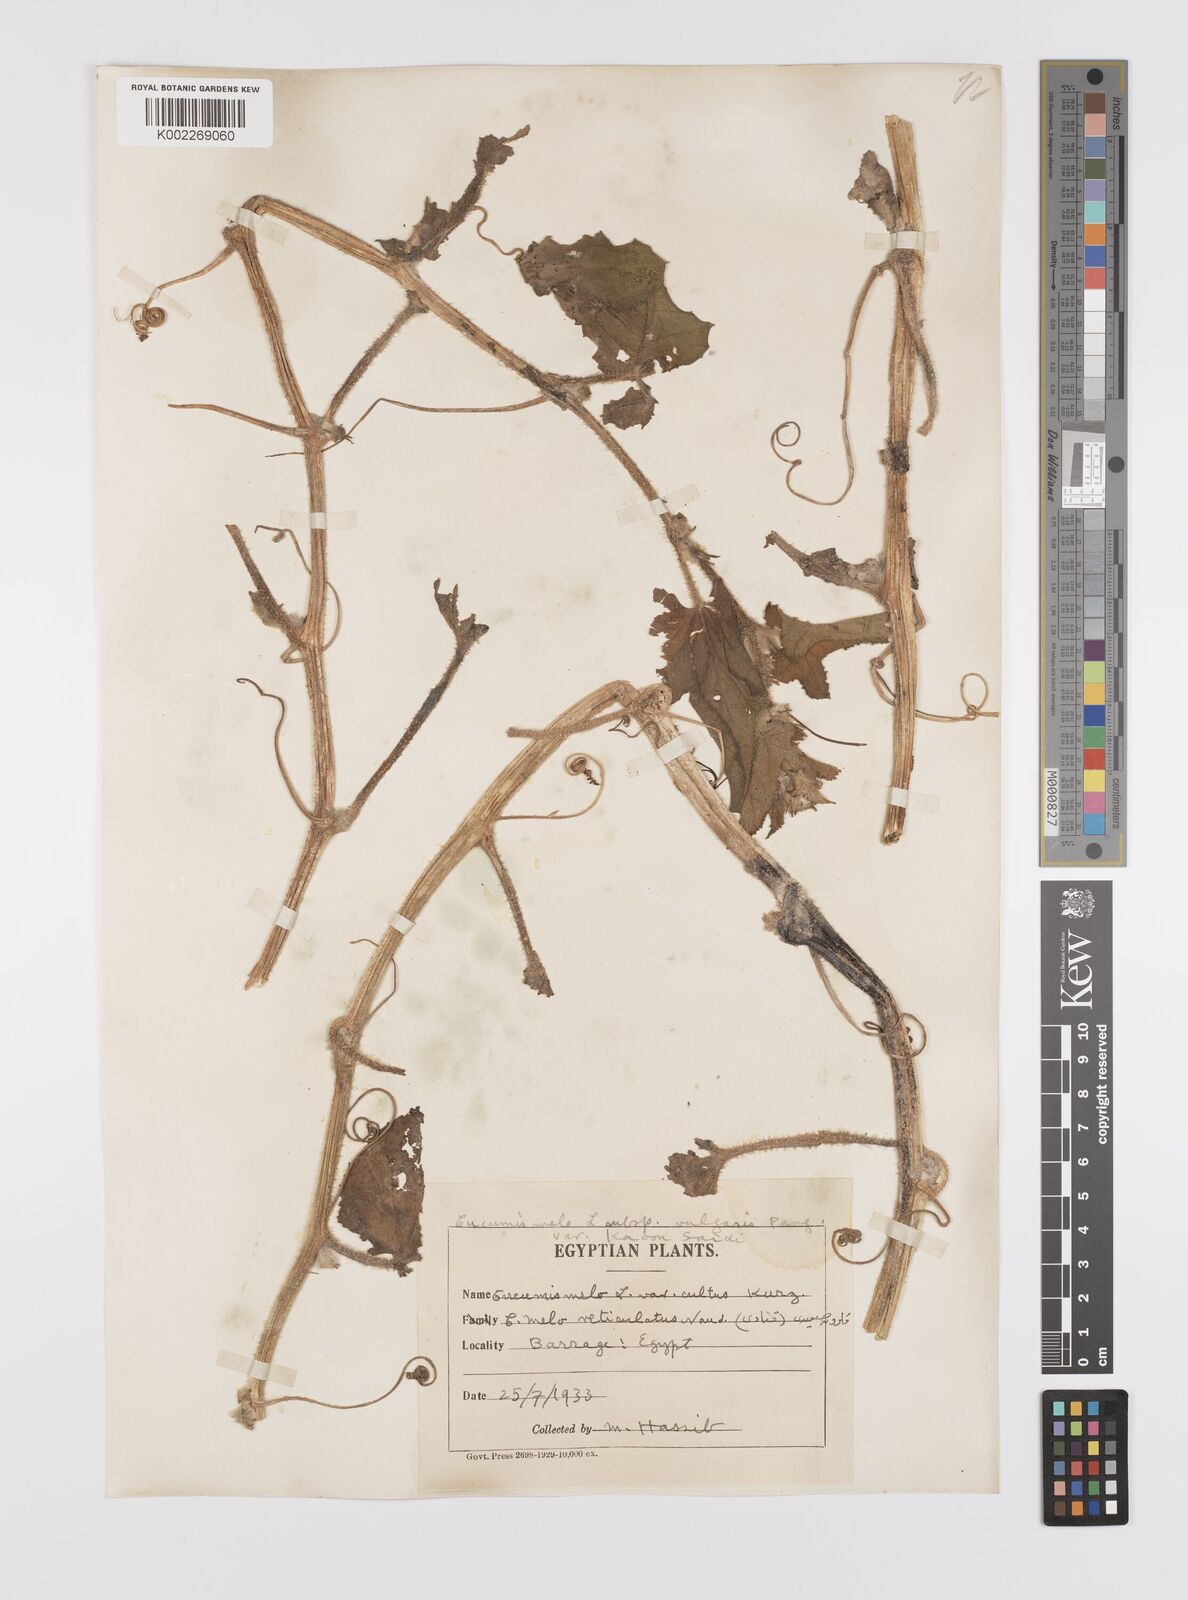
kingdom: Plantae
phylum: Tracheophyta
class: Magnoliopsida
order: Cucurbitales
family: Cucurbitaceae
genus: Cucumis
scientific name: Cucumis melo
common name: Melon
